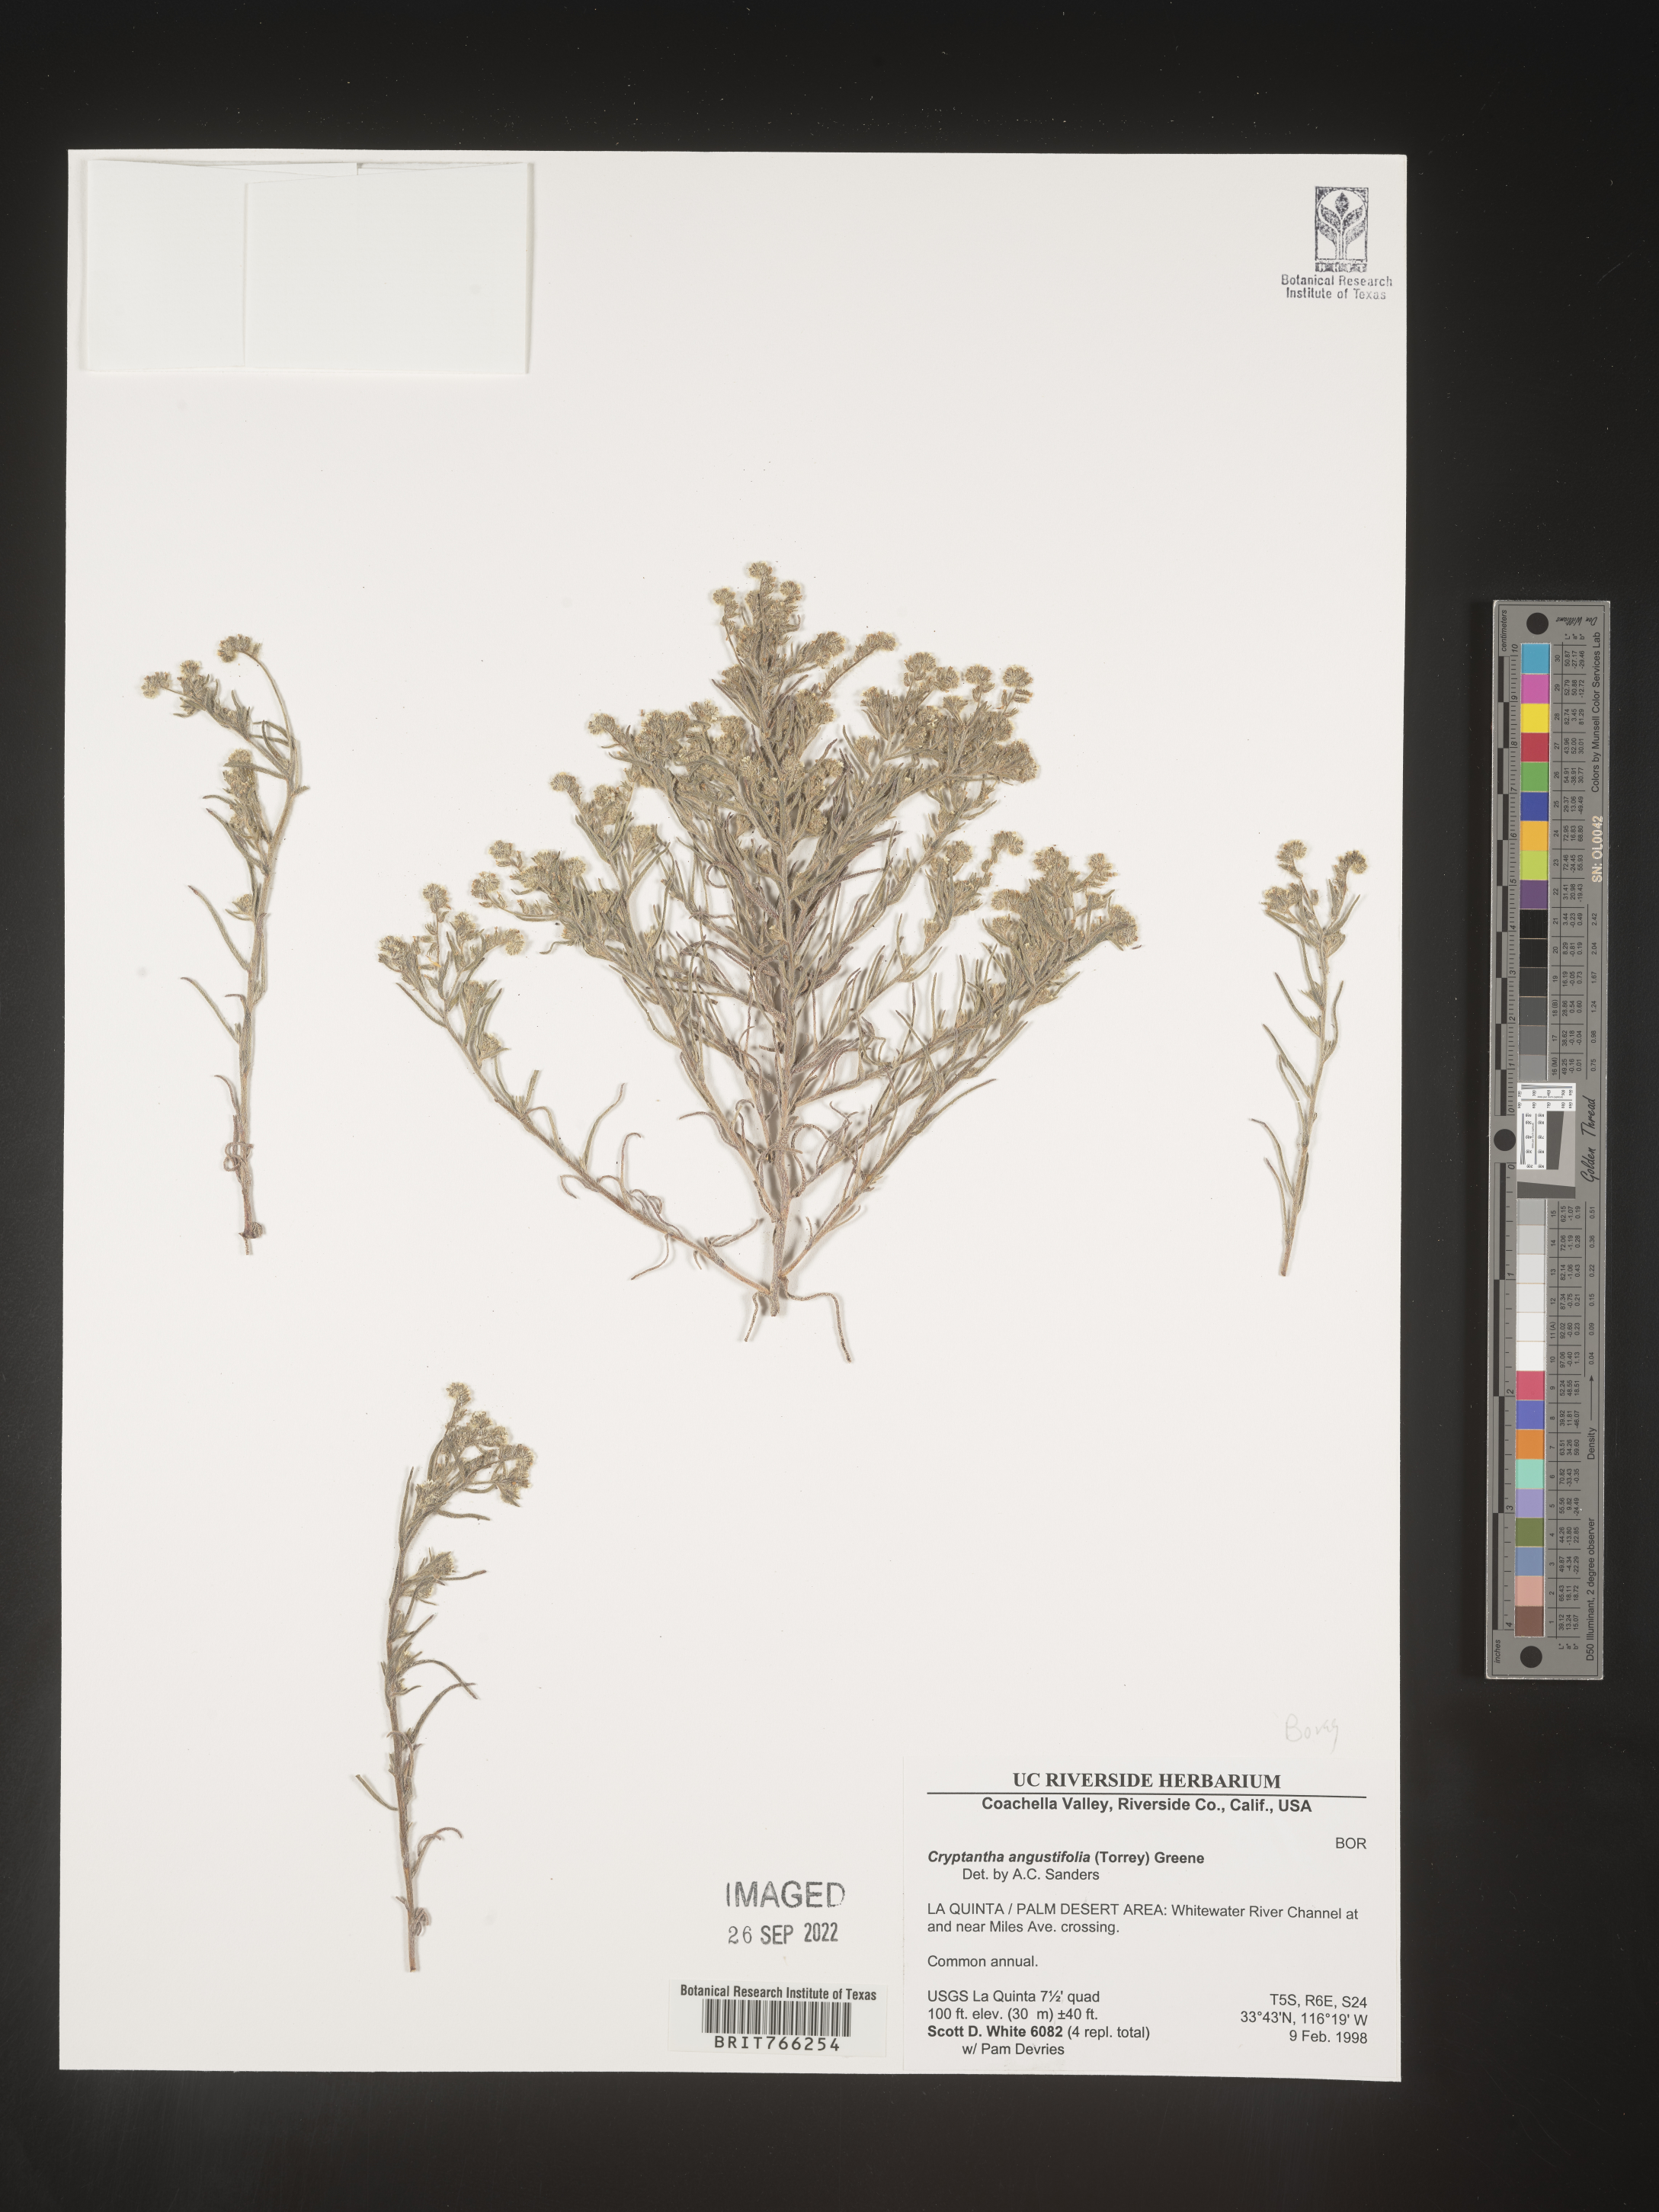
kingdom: Plantae
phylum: Tracheophyta
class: Magnoliopsida
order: Boraginales
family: Boraginaceae
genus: Cryptantha
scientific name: Cryptantha
